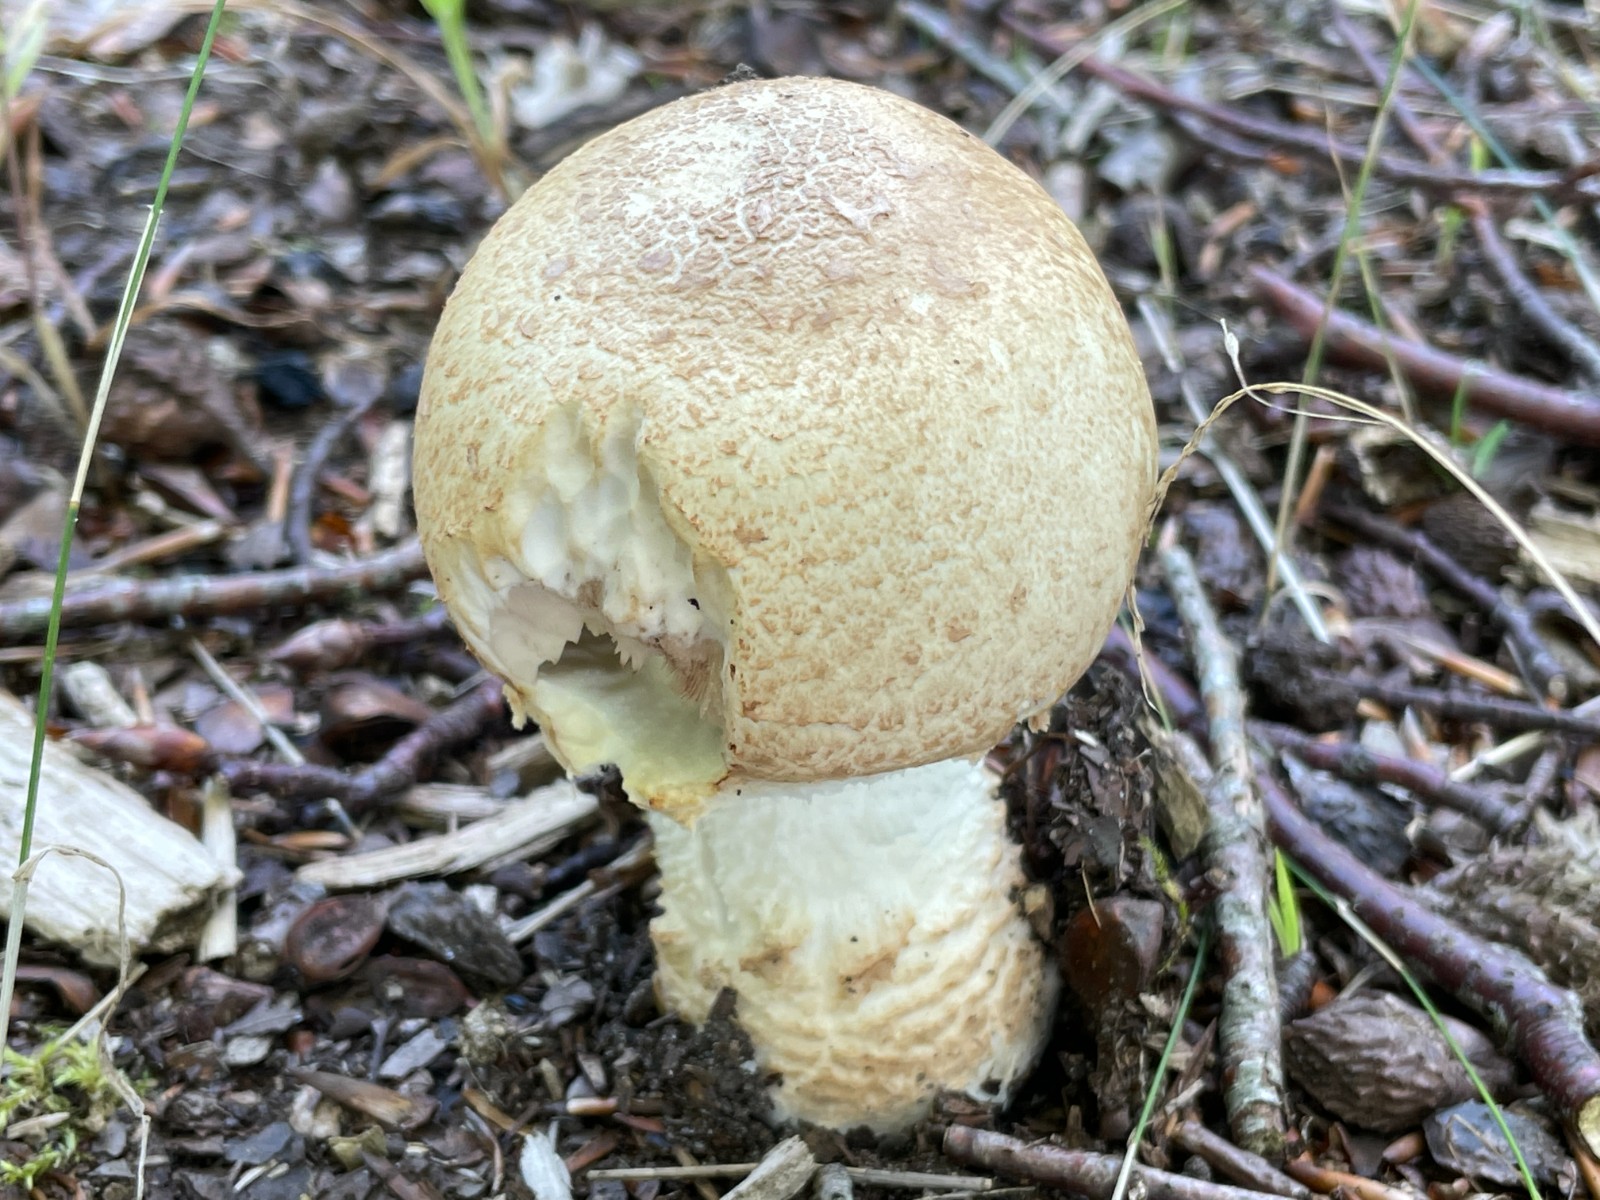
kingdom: Fungi
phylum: Basidiomycota
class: Agaricomycetes
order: Agaricales
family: Agaricaceae
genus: Agaricus
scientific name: Agaricus augustus
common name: prægtig champignon
